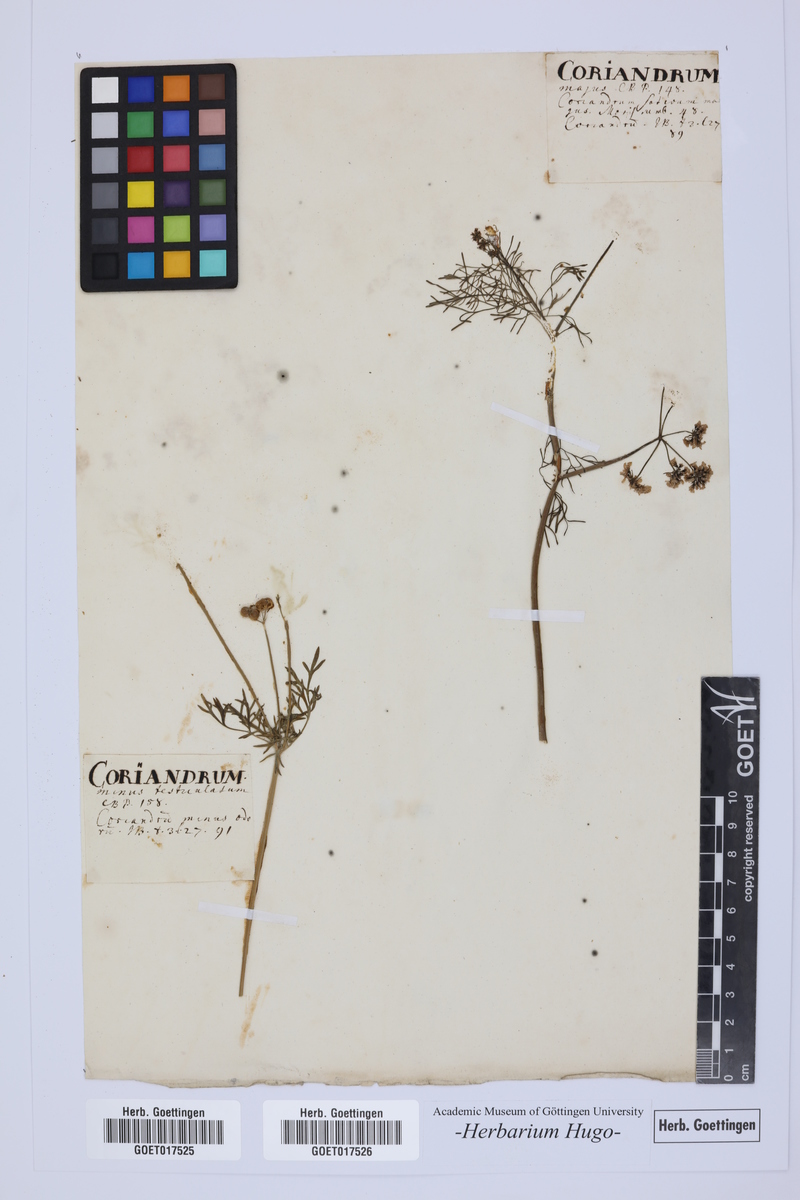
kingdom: Plantae
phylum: Tracheophyta
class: Magnoliopsida
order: Apiales
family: Apiaceae
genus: Bifora
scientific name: Bifora testiculata
